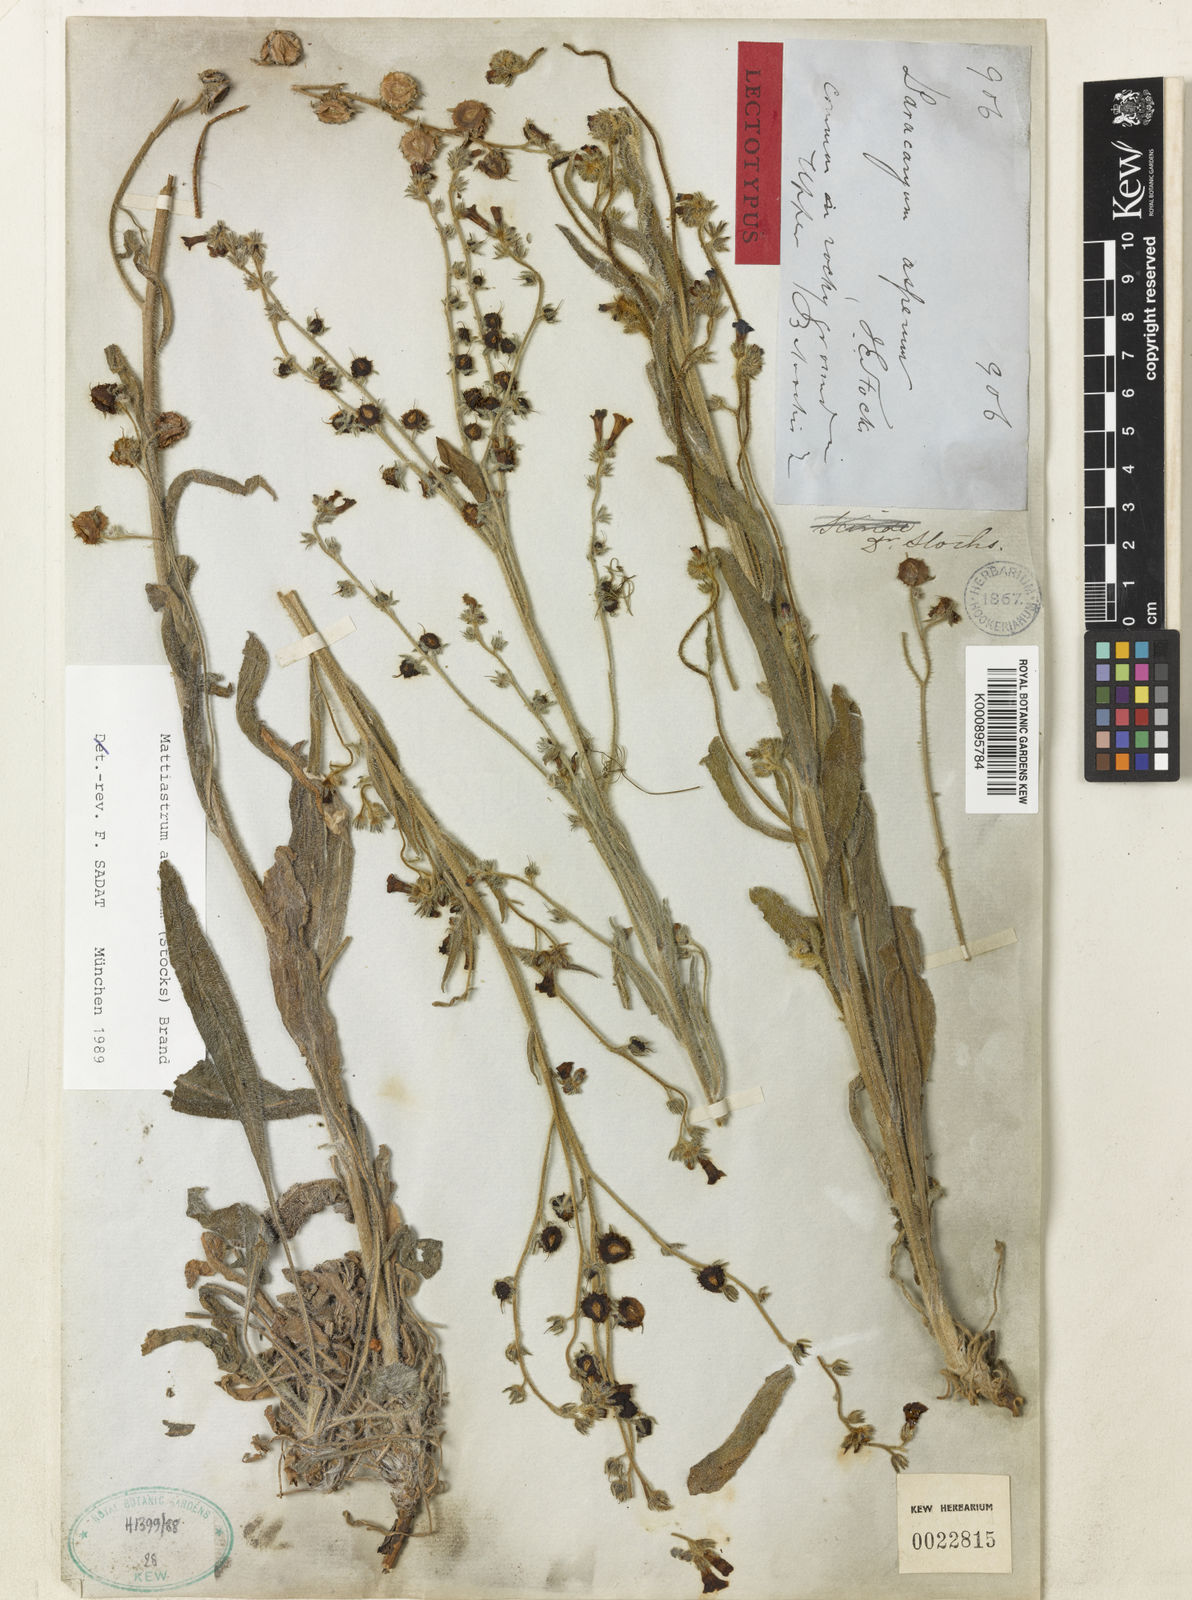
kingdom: Plantae
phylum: Tracheophyta
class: Magnoliopsida
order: Boraginales
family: Boraginaceae
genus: Paracaryum
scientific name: Paracaryum asperum
